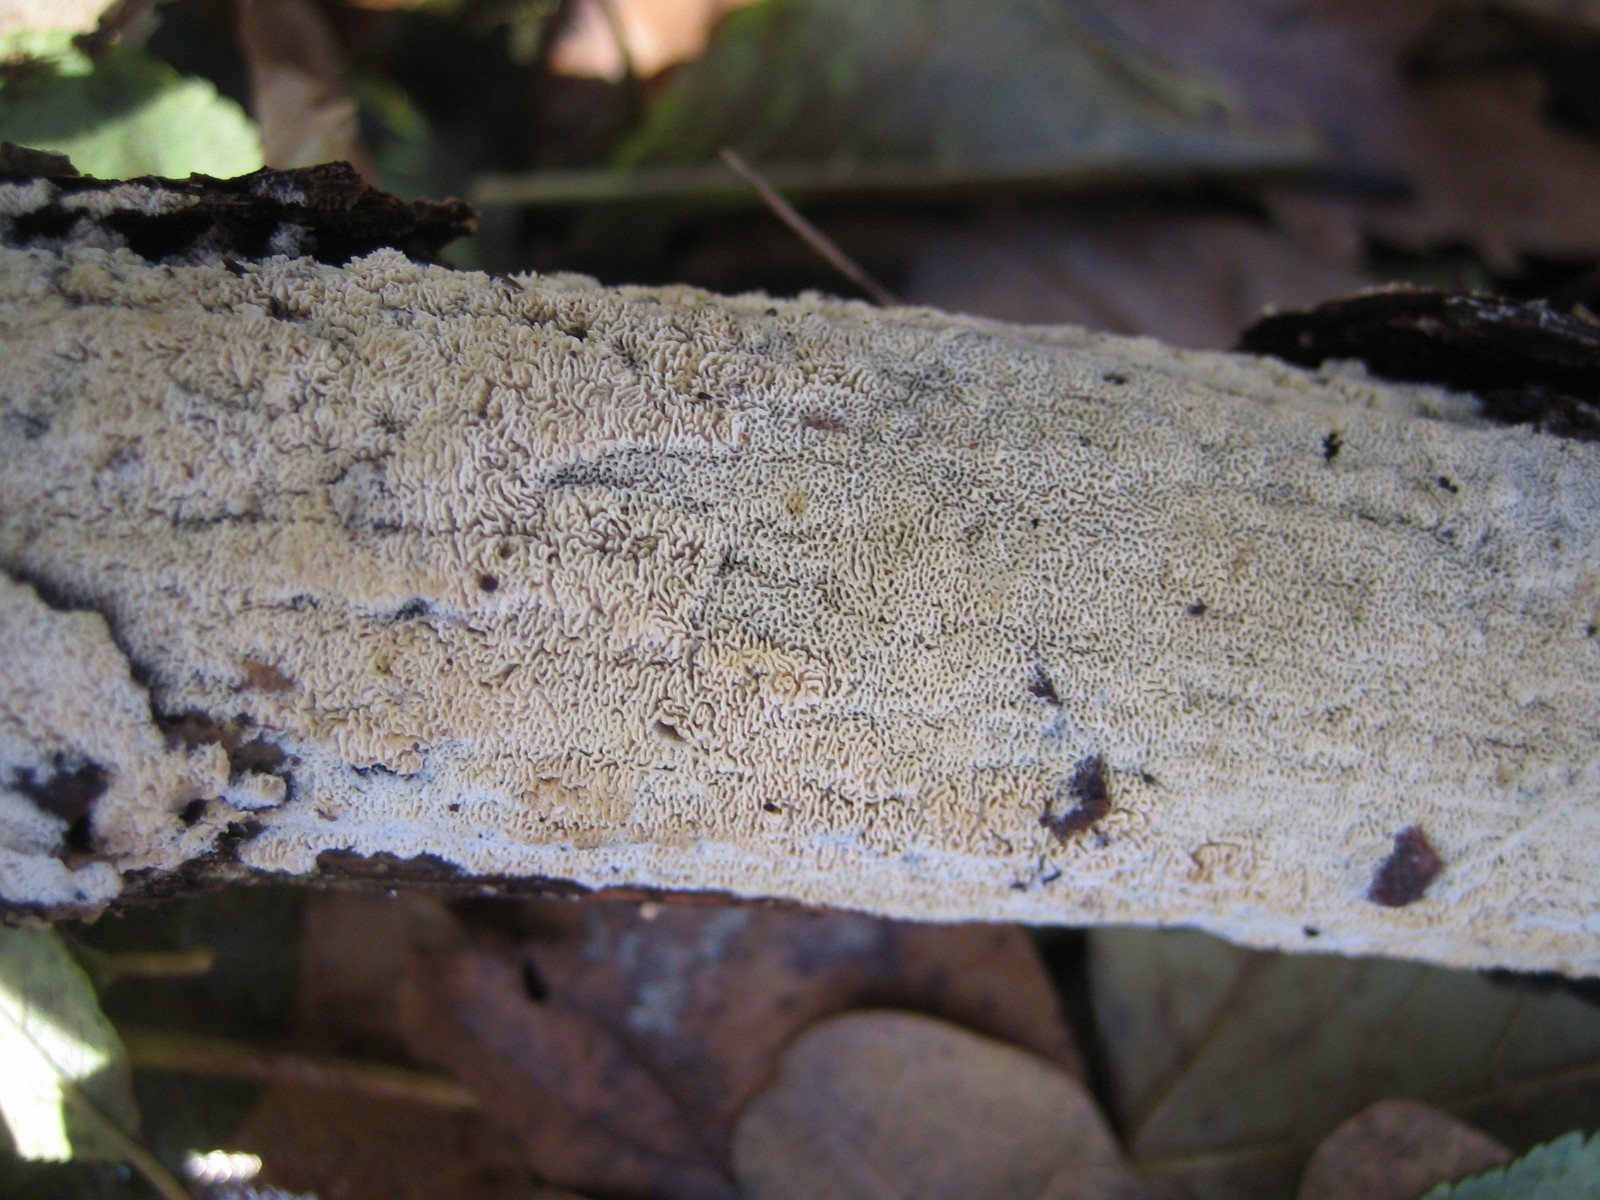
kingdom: Fungi
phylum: Basidiomycota
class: Agaricomycetes
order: Hymenochaetales
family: Schizoporaceae
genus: Xylodon
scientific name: Xylodon subtropicus
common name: labyrint-tandsvamp
